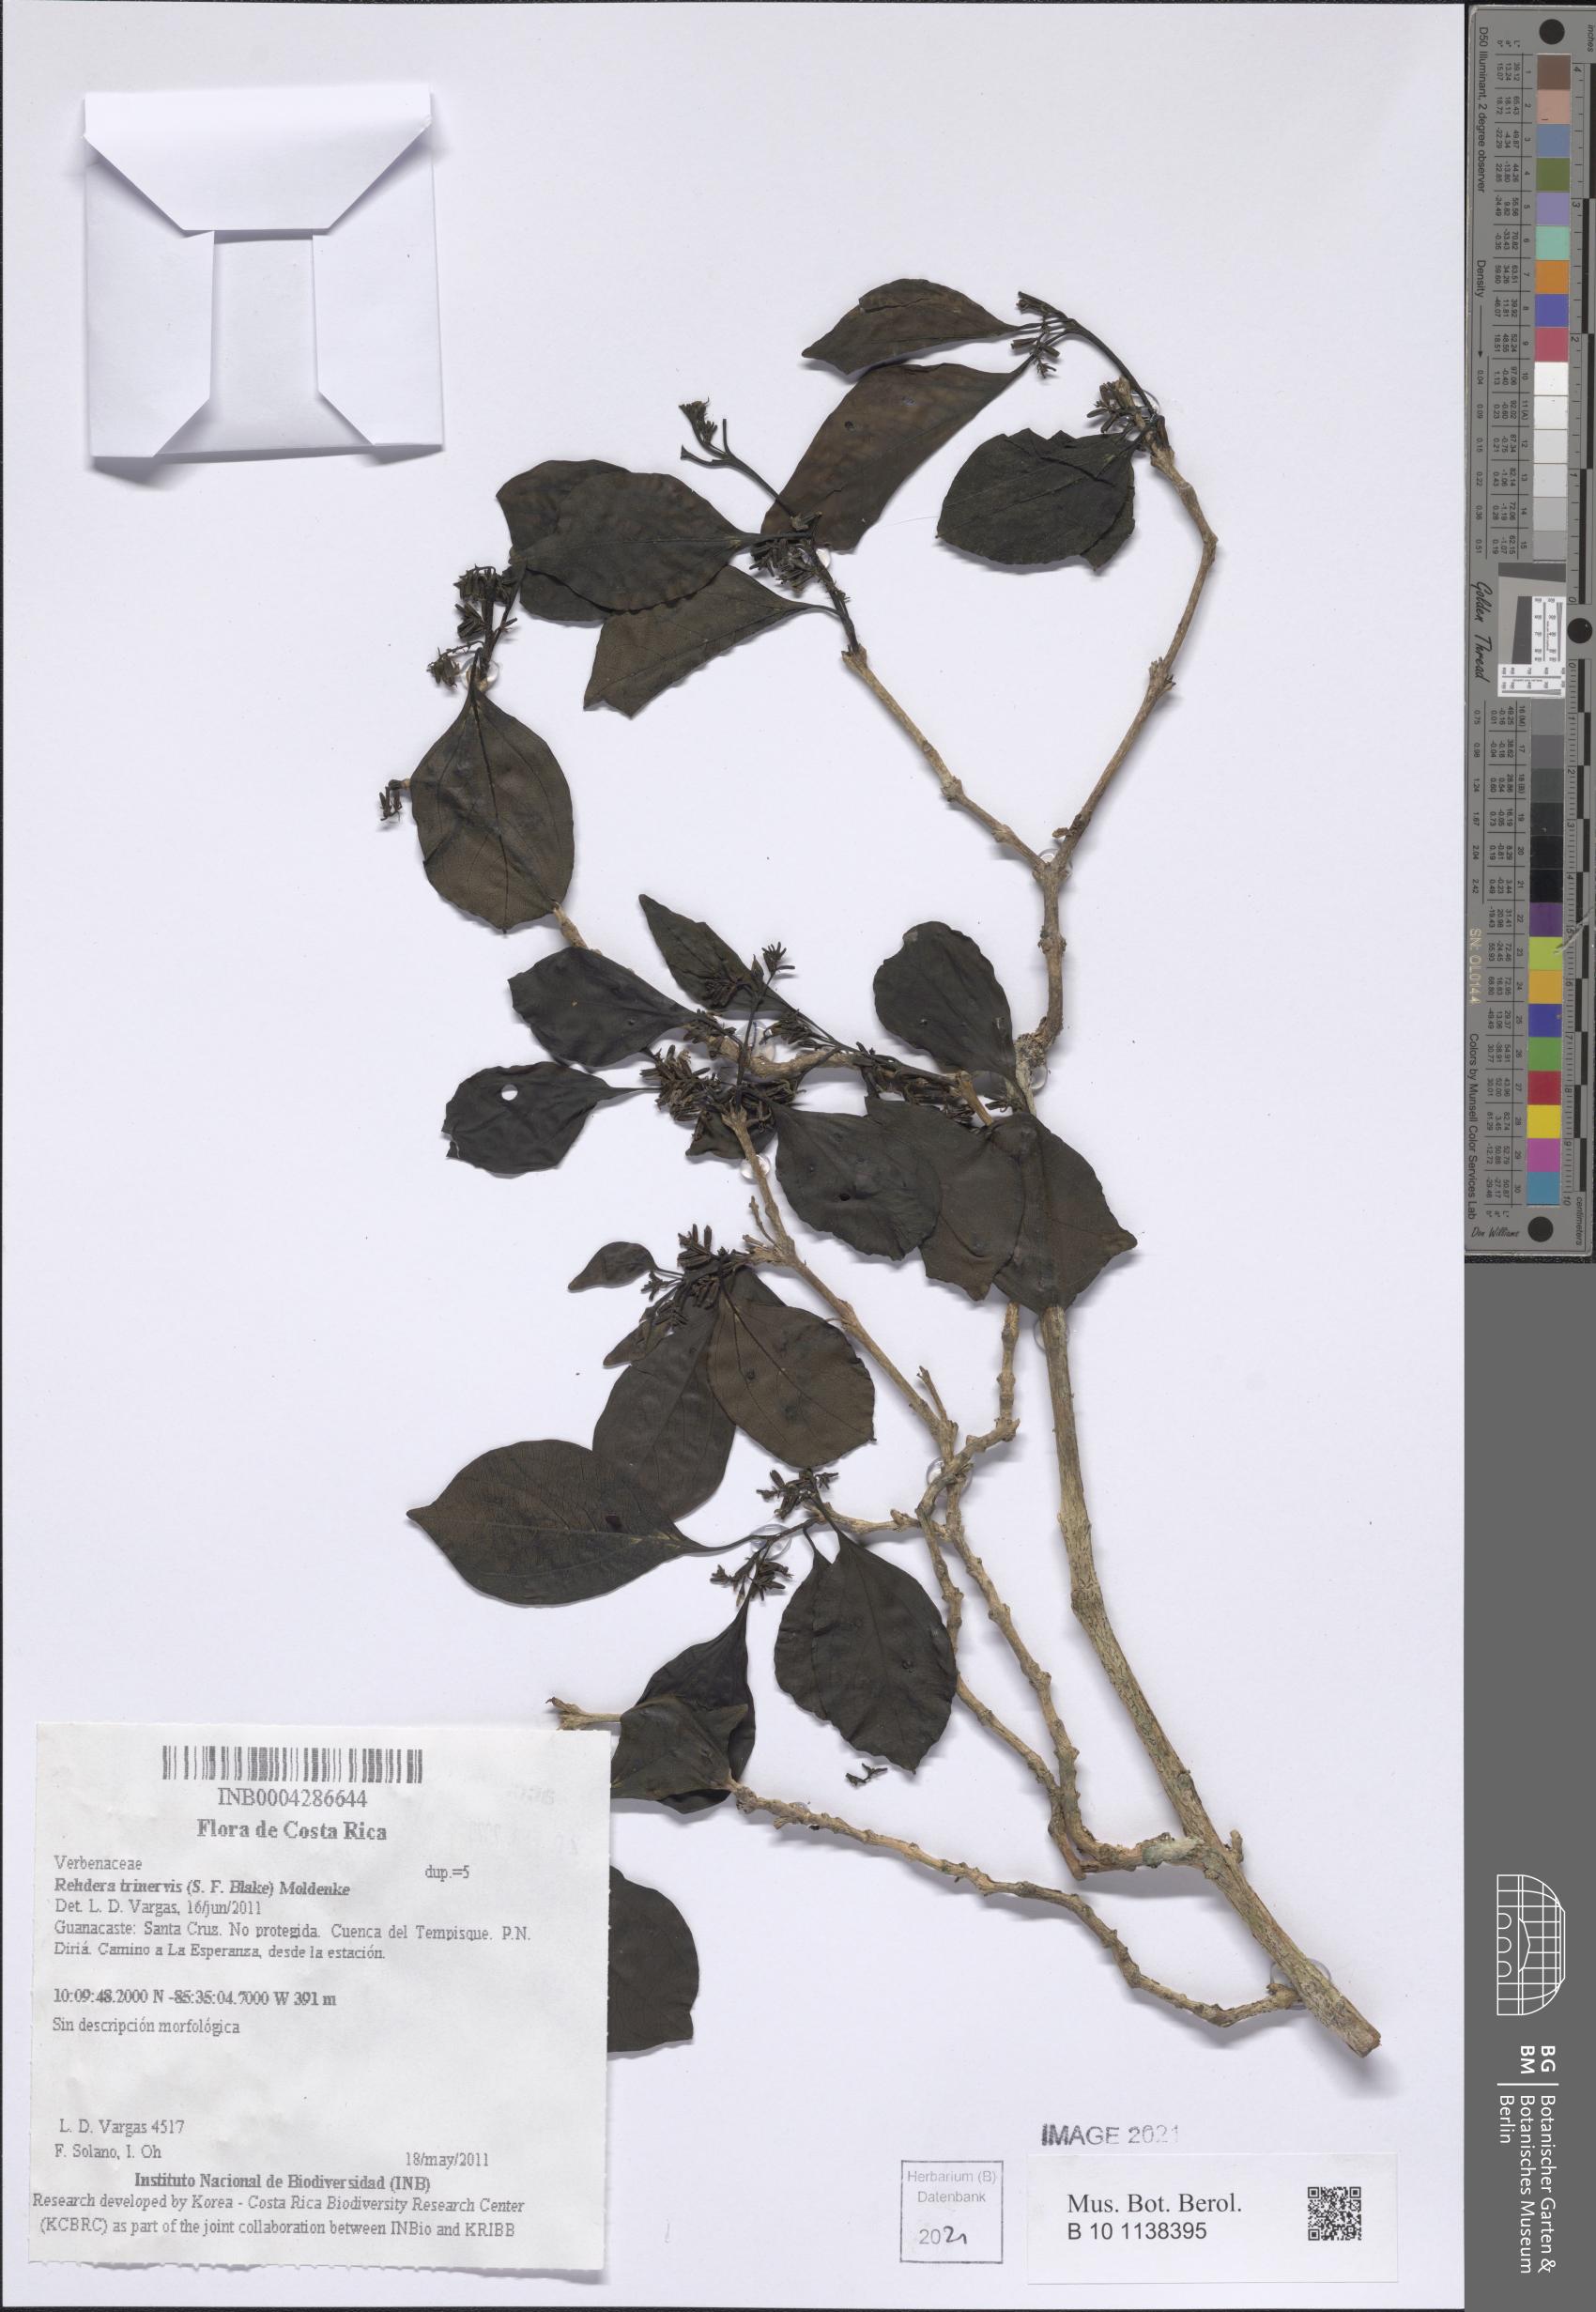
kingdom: Plantae
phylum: Tracheophyta
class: Magnoliopsida
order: Lamiales
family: Verbenaceae
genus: Rehdera
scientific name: Rehdera trinervis
